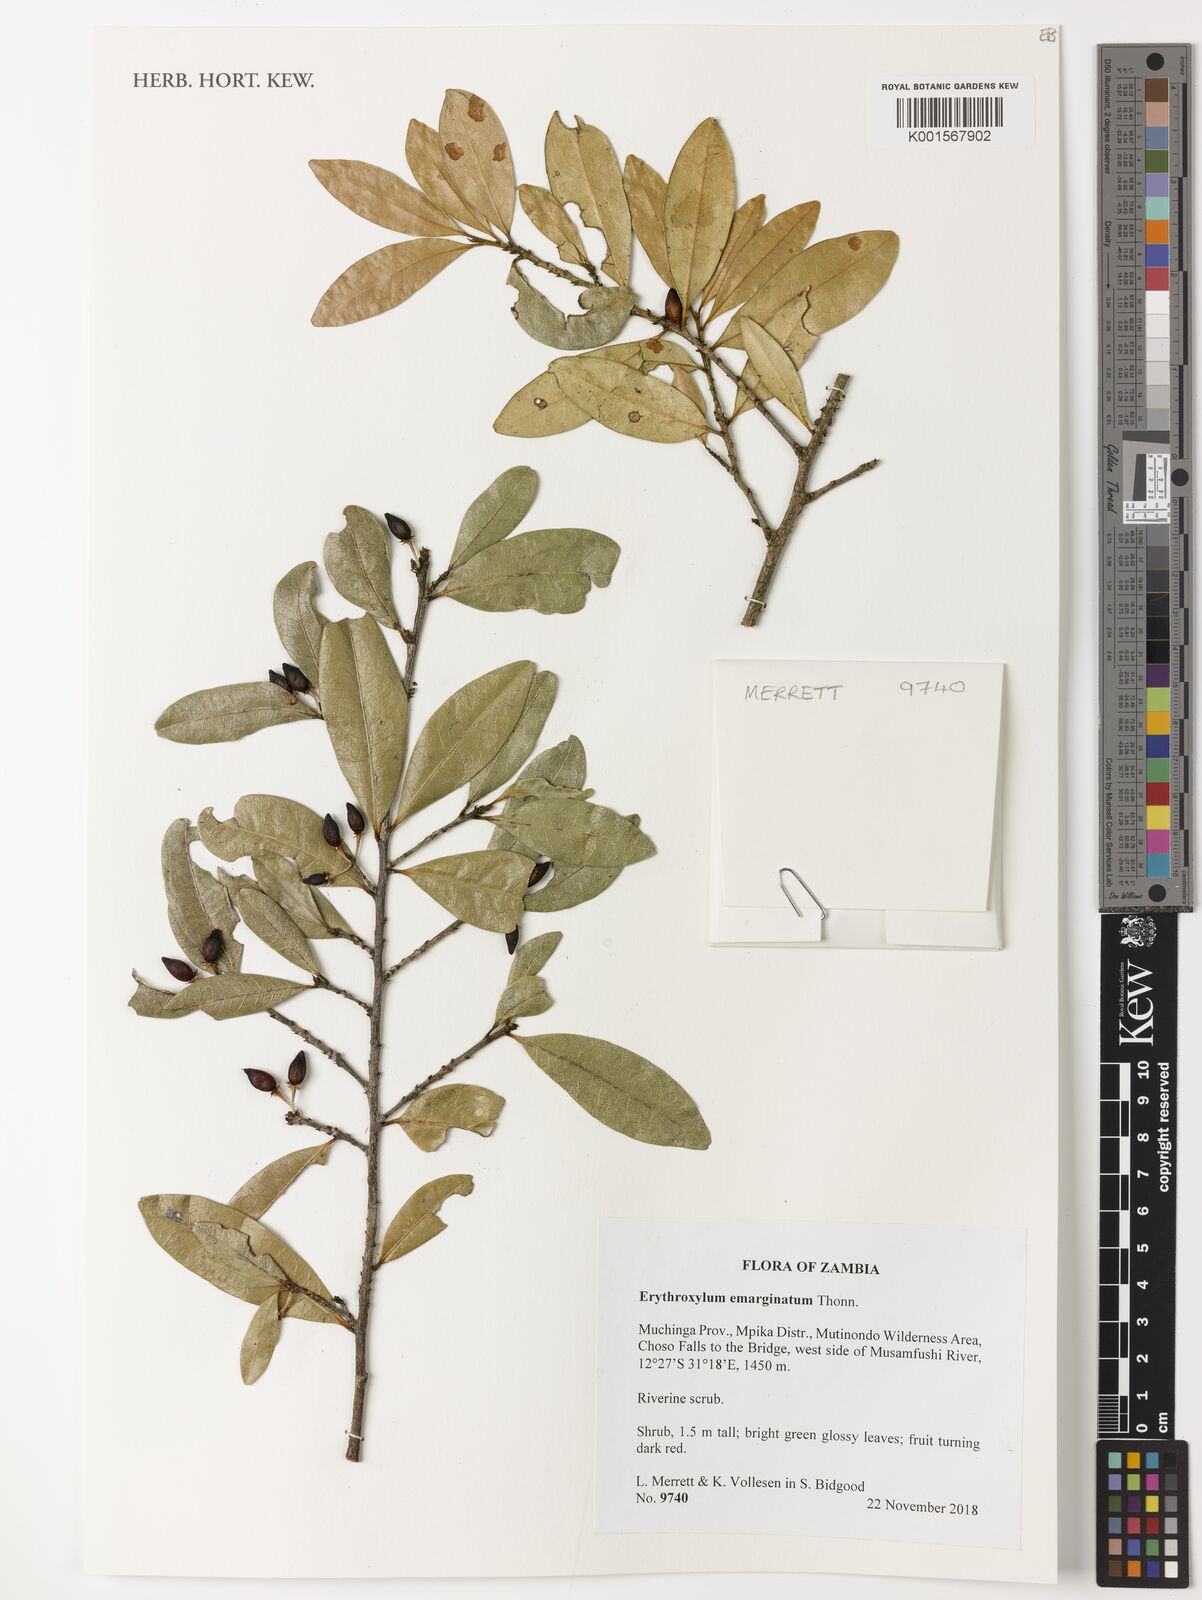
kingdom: Plantae
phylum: Tracheophyta
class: Magnoliopsida
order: Malpighiales
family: Erythroxylaceae
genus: Erythroxylum
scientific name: Erythroxylum emarginatum
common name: African coca-tree
